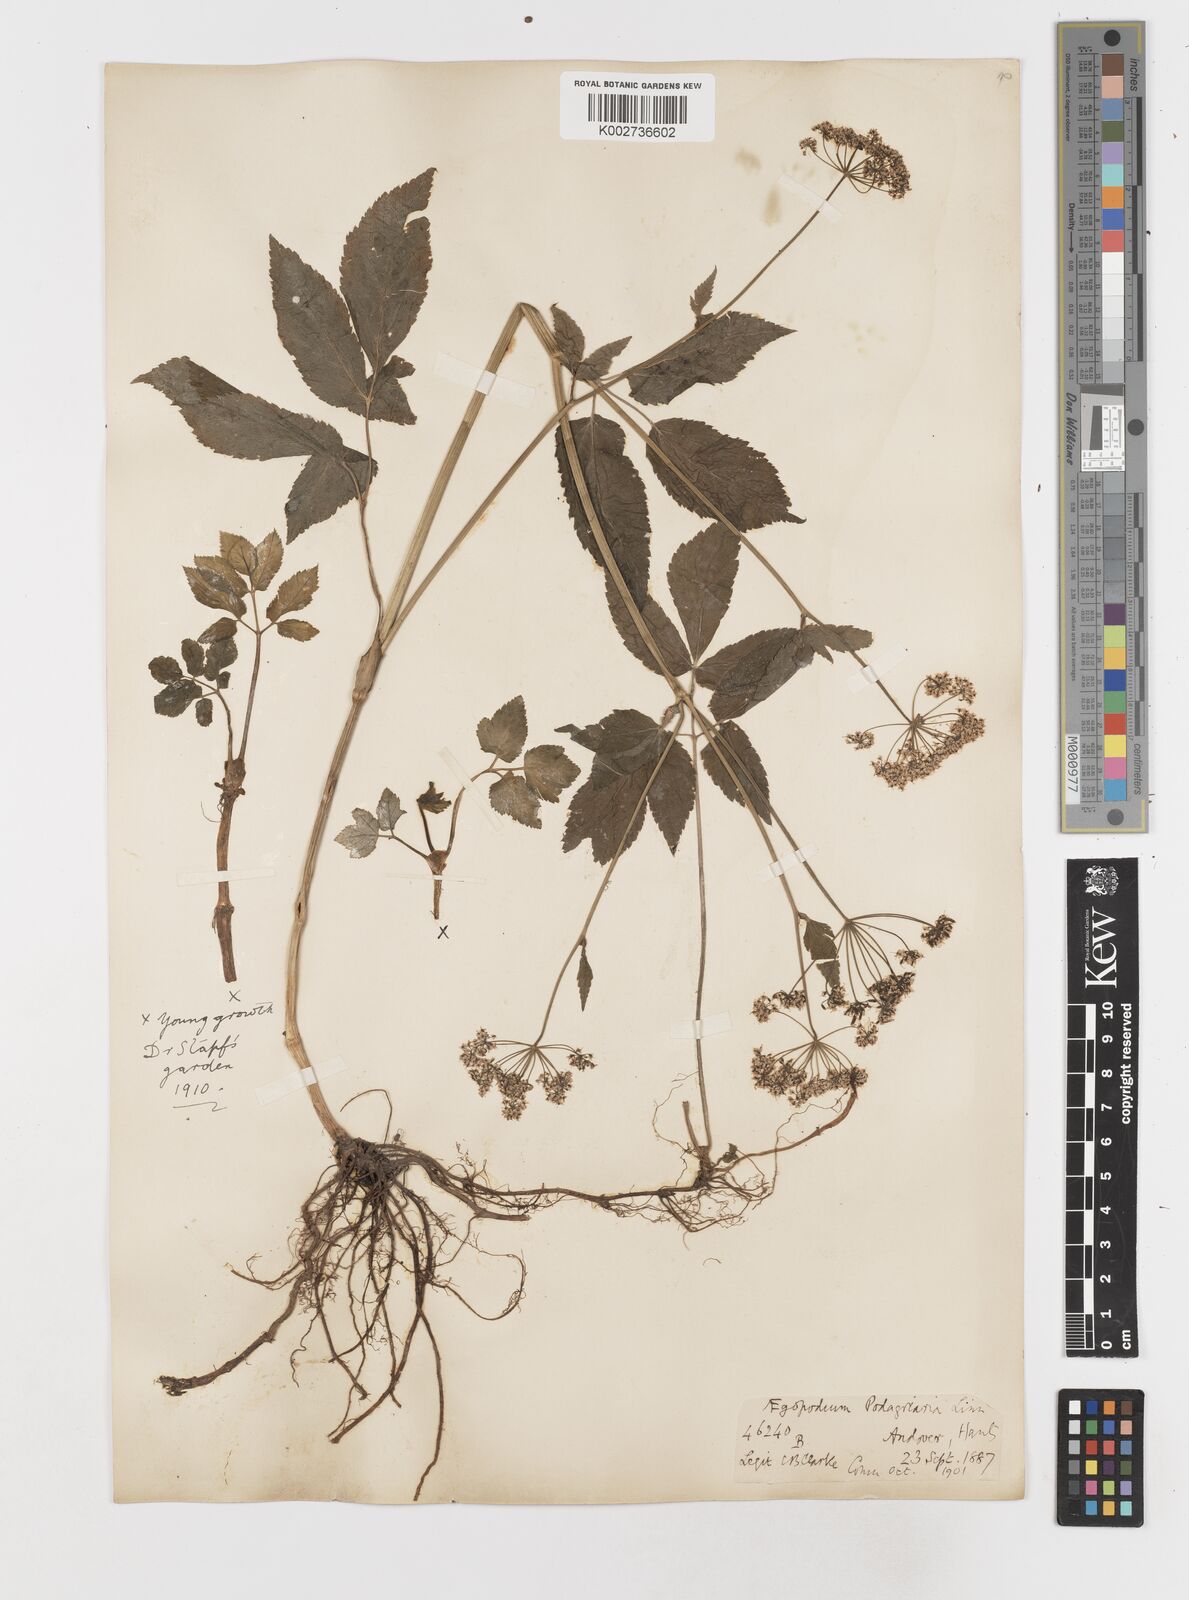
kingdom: Plantae
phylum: Tracheophyta
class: Magnoliopsida
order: Apiales
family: Apiaceae
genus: Aegopodium
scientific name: Aegopodium podagraria
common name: Ground-elder
